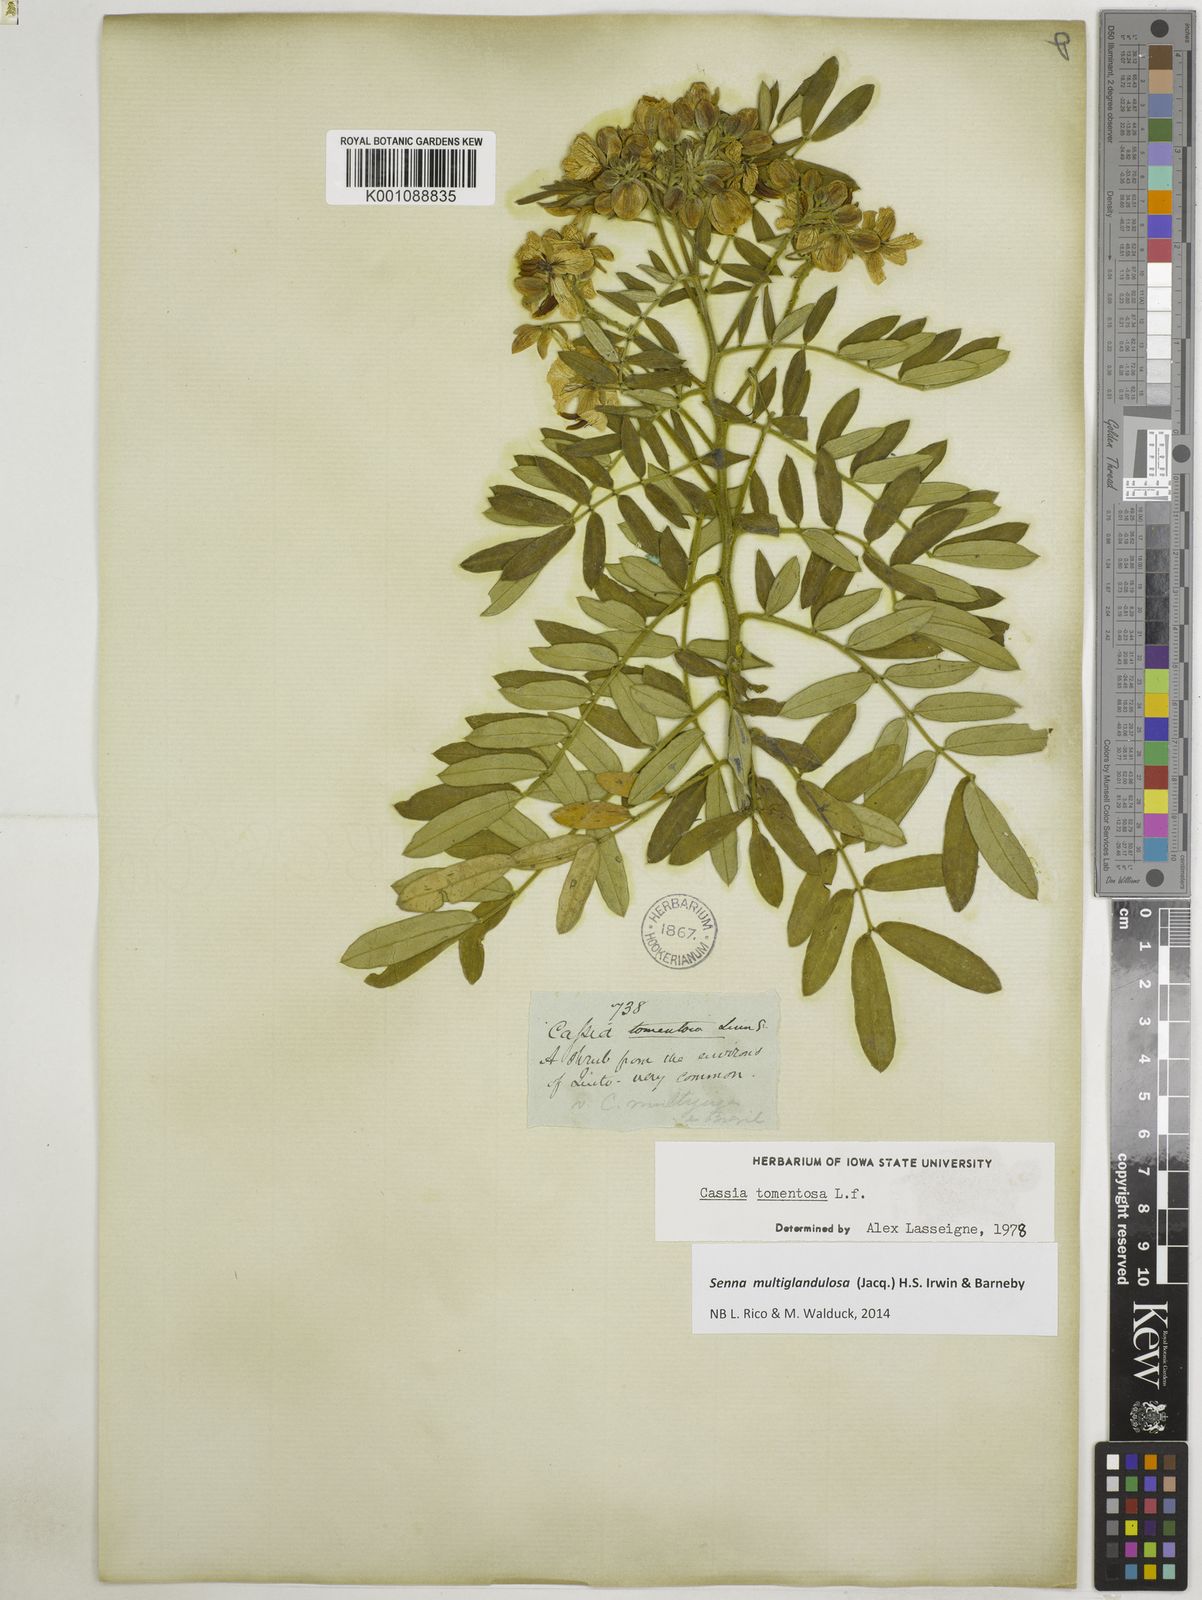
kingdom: Plantae
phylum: Tracheophyta
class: Magnoliopsida
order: Fabales
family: Fabaceae
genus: Senna
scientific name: Senna multiglandulosa
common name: Glandular senna
